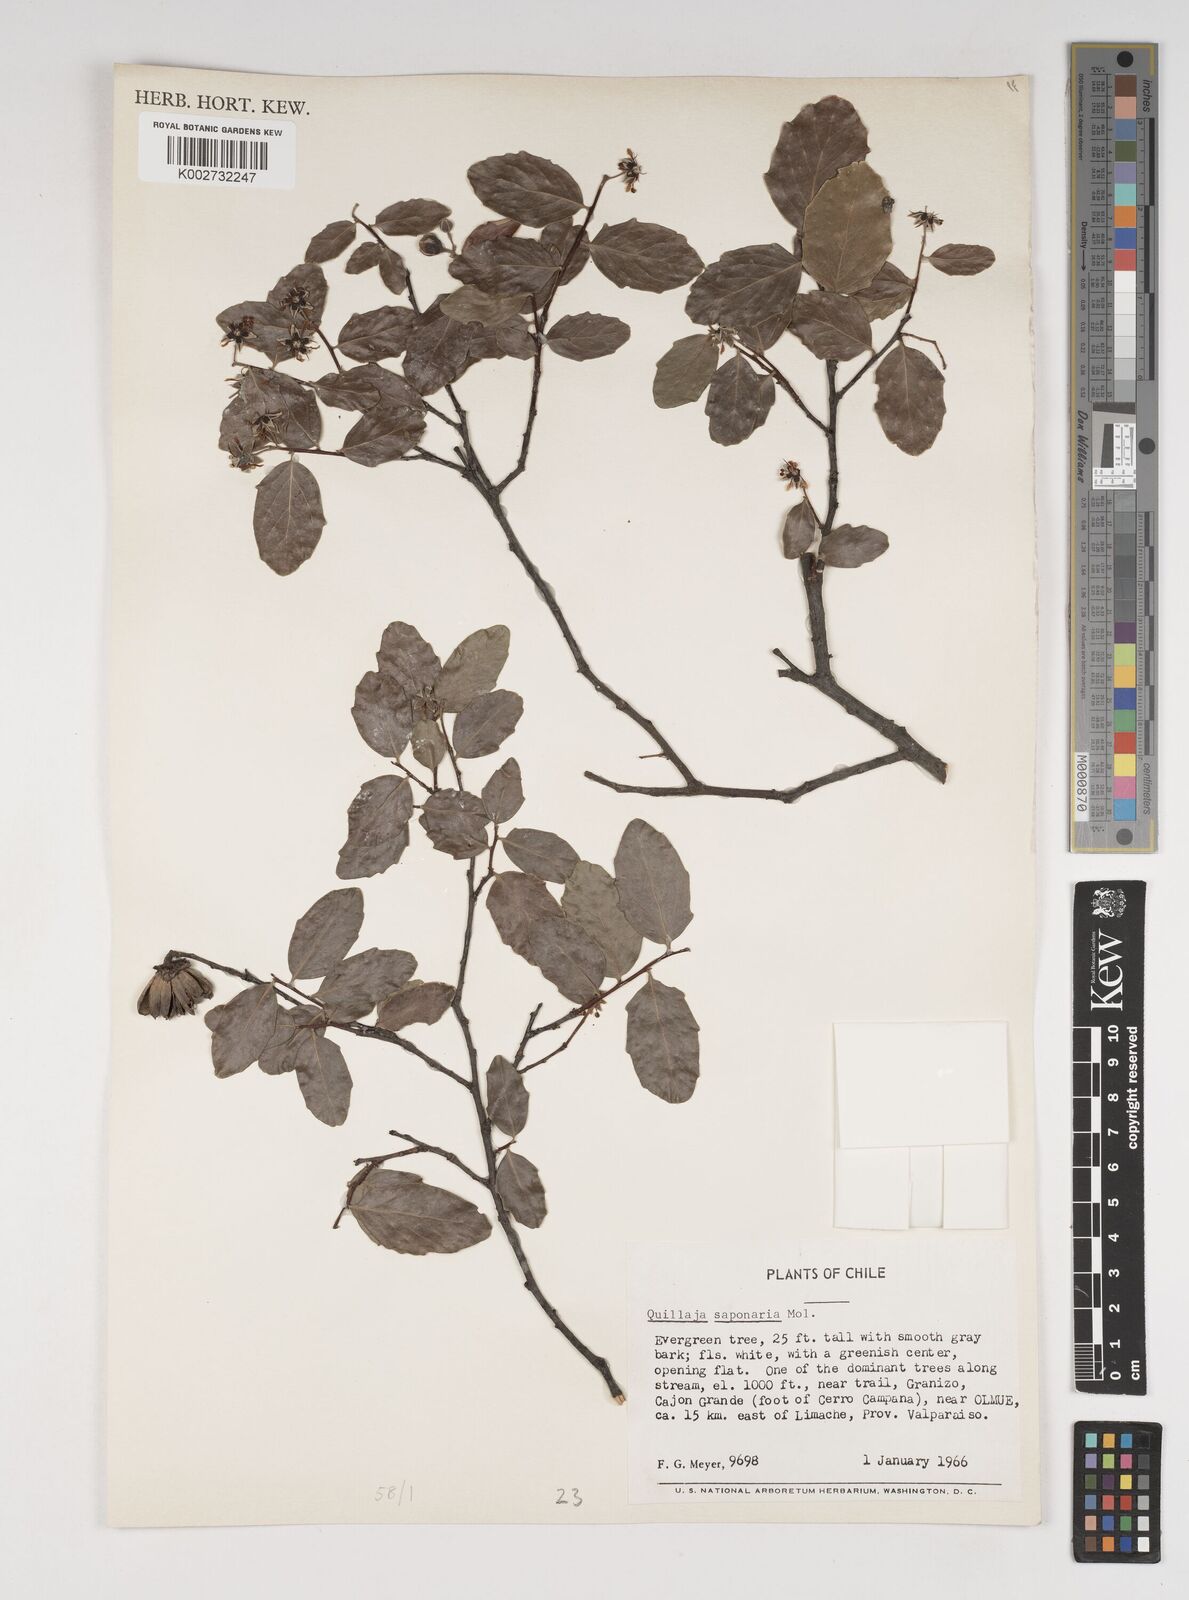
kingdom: Plantae
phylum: Tracheophyta
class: Magnoliopsida
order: Fabales
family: Quillajaceae
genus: Quillaja
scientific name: Quillaja saponaria
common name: Murillo's-bark
